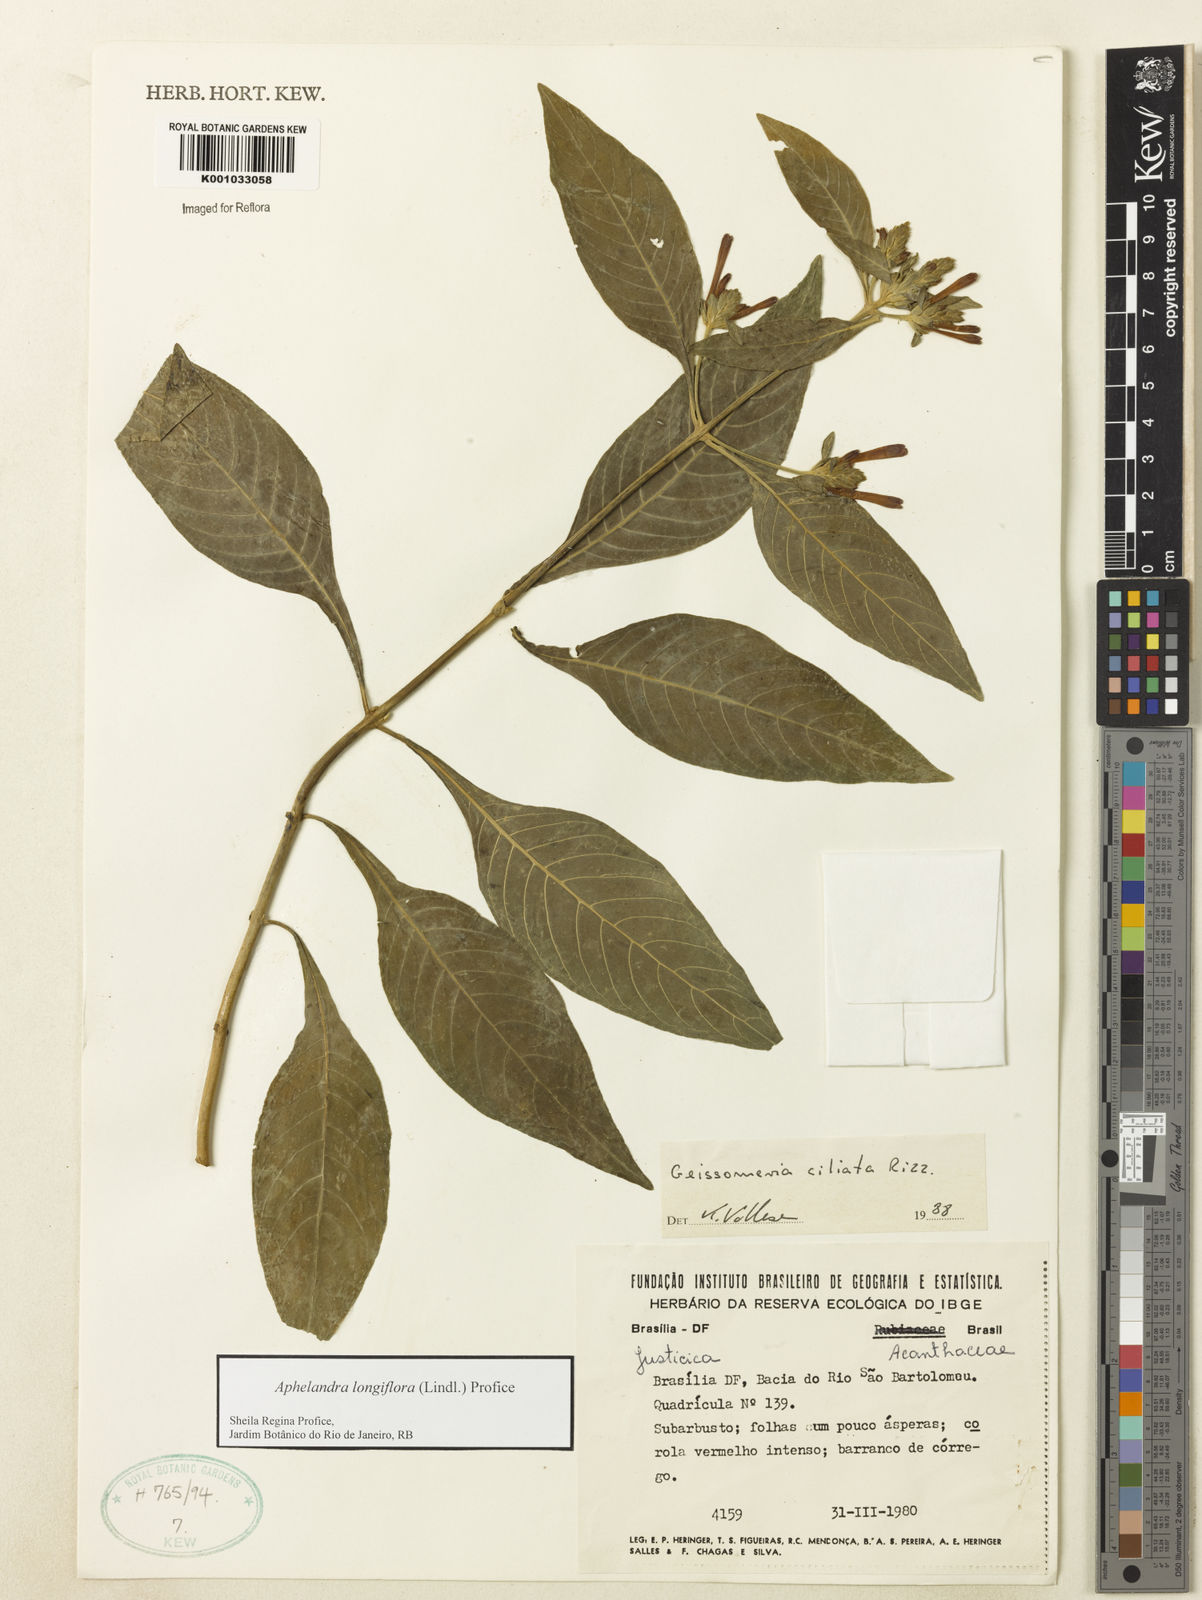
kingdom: Plantae
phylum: Tracheophyta
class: Magnoliopsida
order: Lamiales
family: Acanthaceae
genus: Aphelandra
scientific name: Aphelandra longiflora
